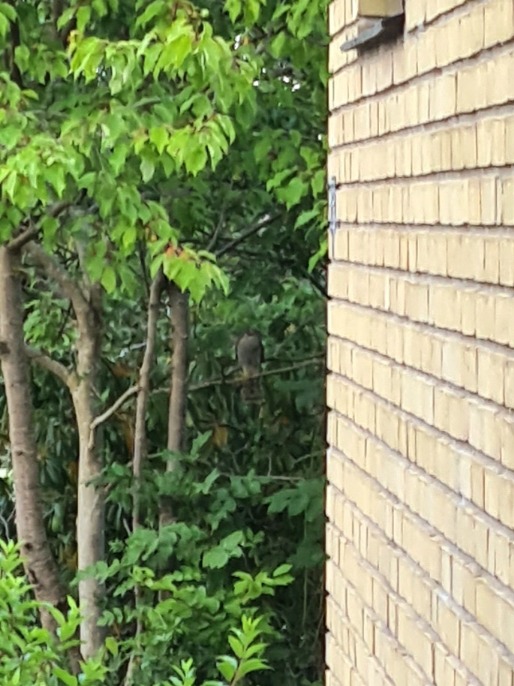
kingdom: Animalia
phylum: Chordata
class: Aves
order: Accipitriformes
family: Accipitridae
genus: Accipiter
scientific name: Accipiter nisus
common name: Spurvehøg
